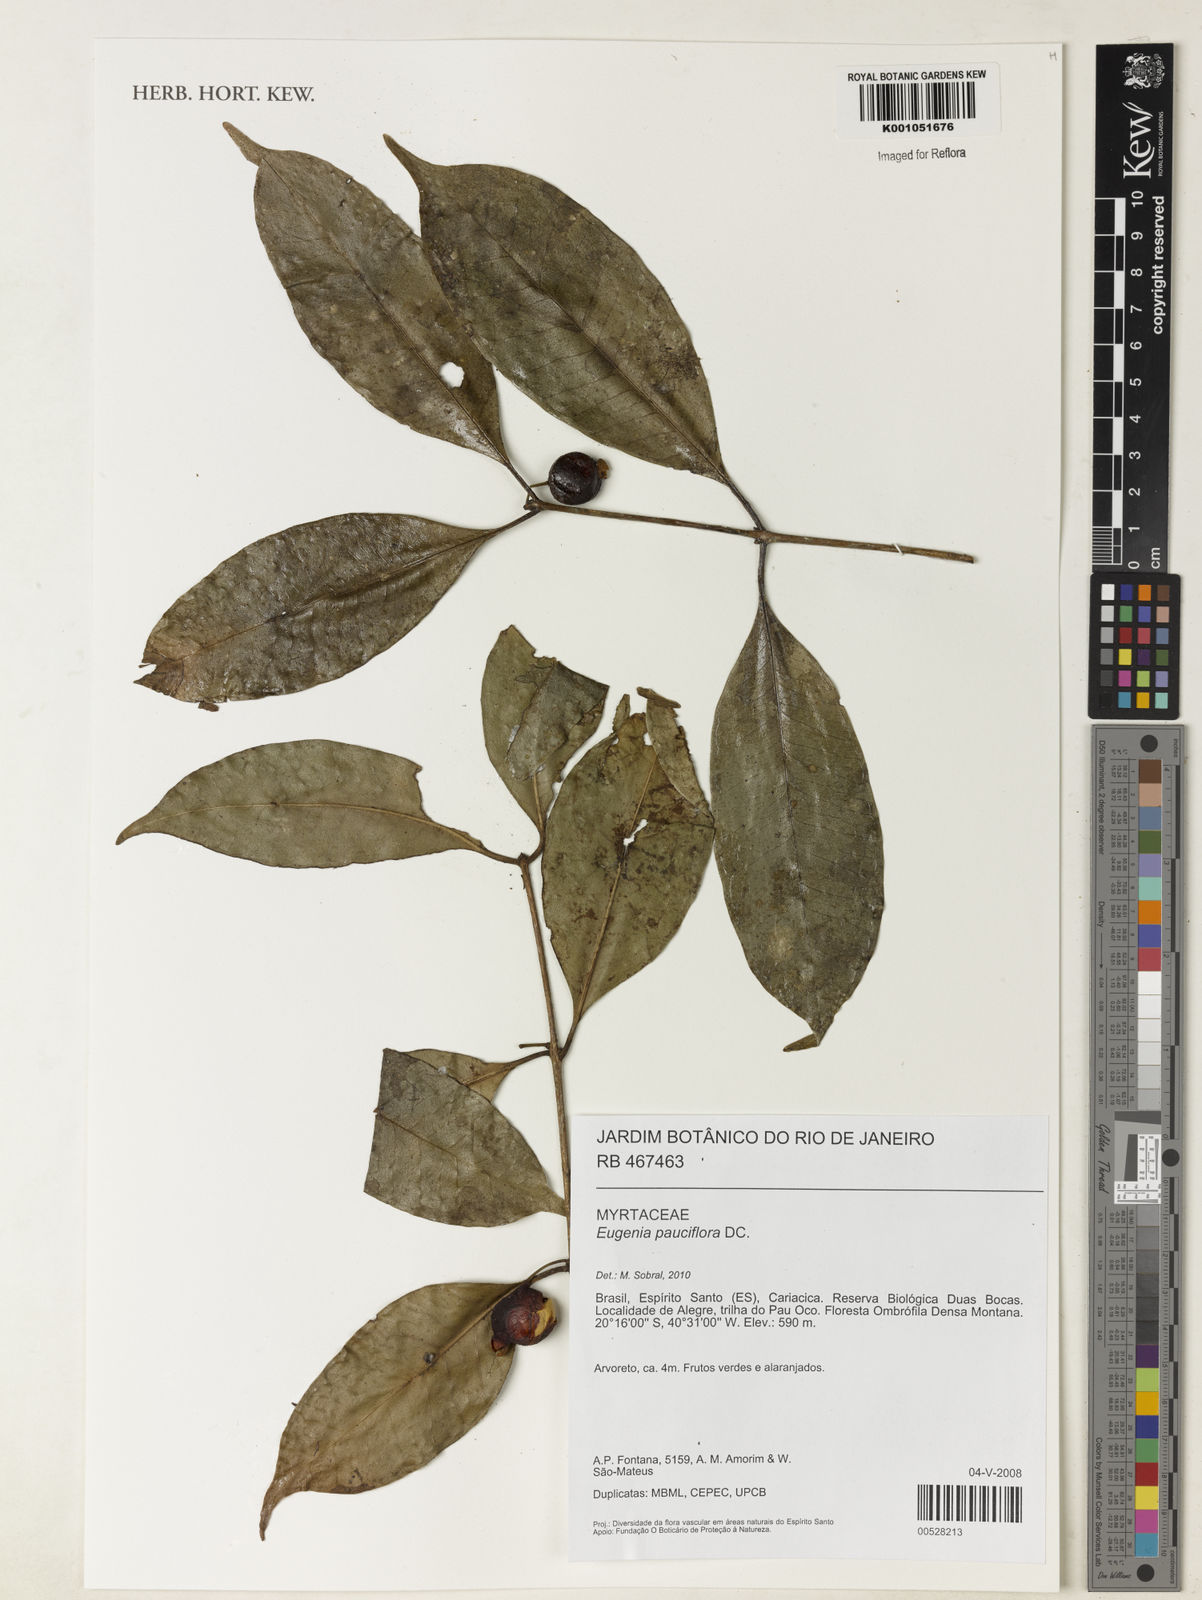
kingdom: Plantae
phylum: Tracheophyta
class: Magnoliopsida
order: Myrtales
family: Myrtaceae
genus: Eugenia
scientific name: Eugenia pauciflora
